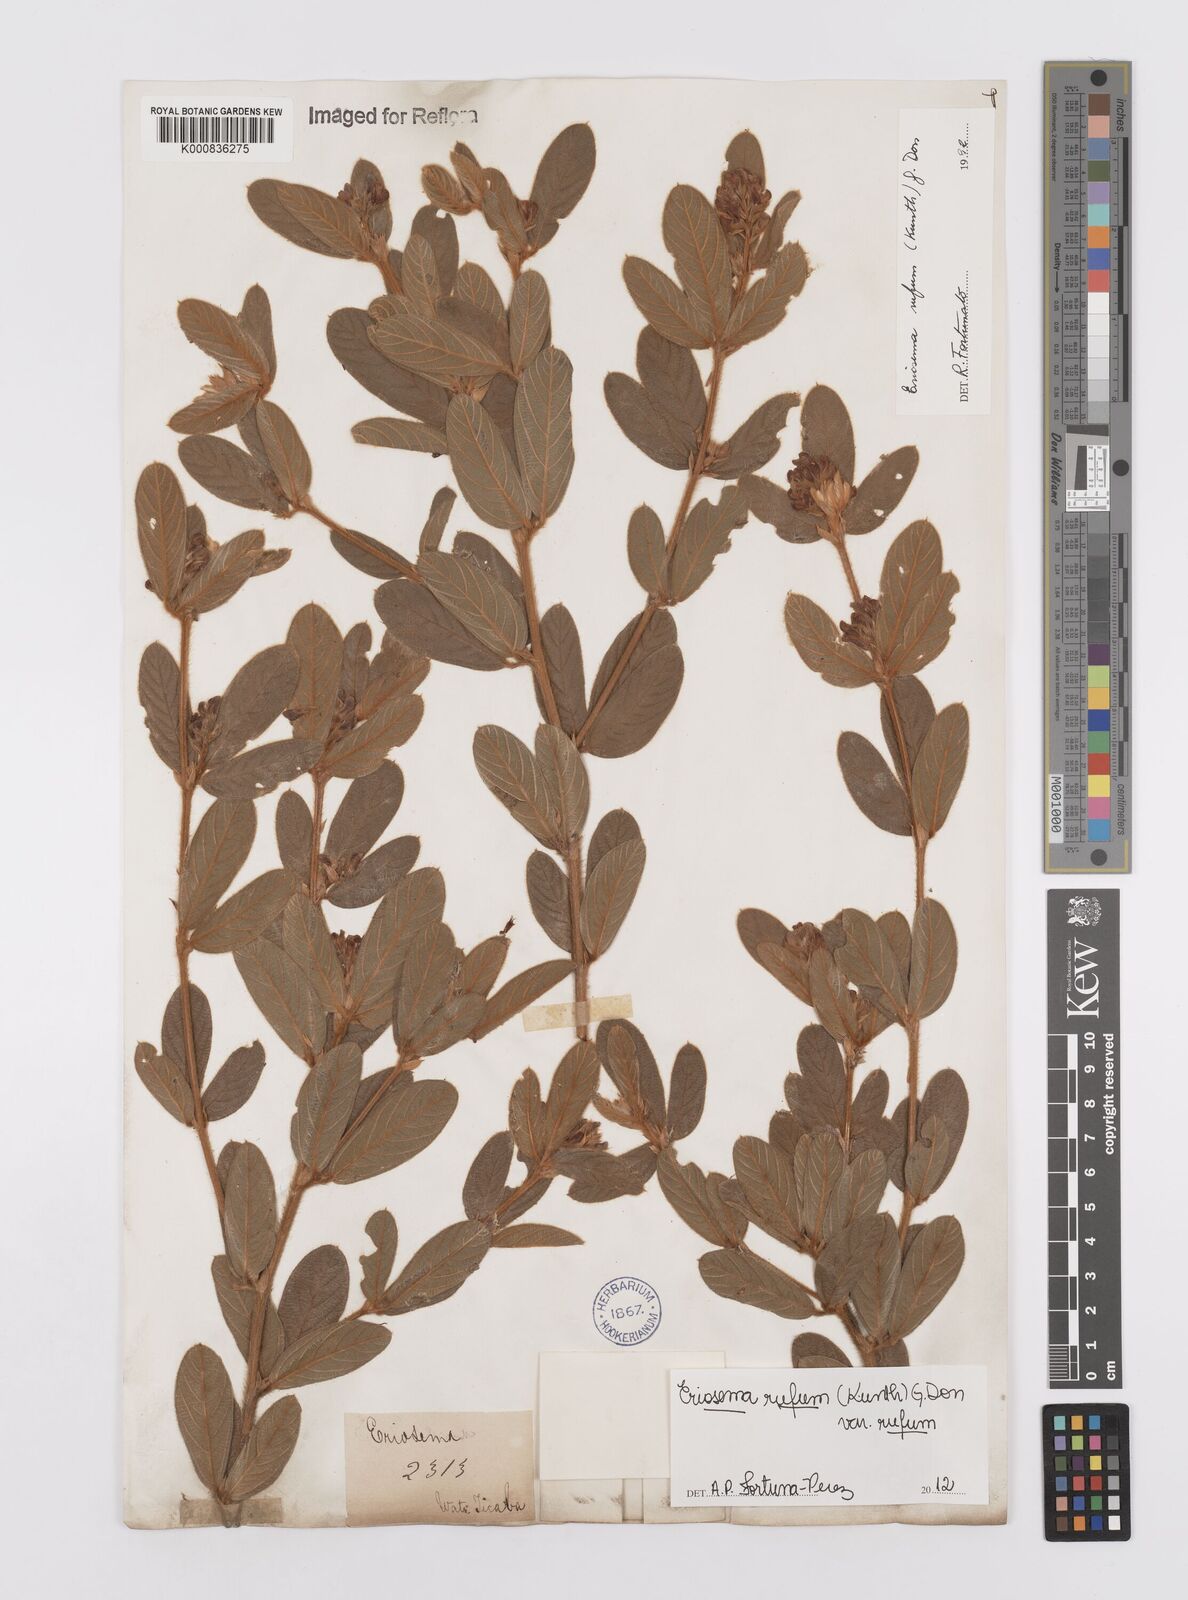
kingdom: Plantae
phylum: Tracheophyta
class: Magnoliopsida
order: Fabales
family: Fabaceae
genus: Eriosema
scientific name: Eriosema rufum
